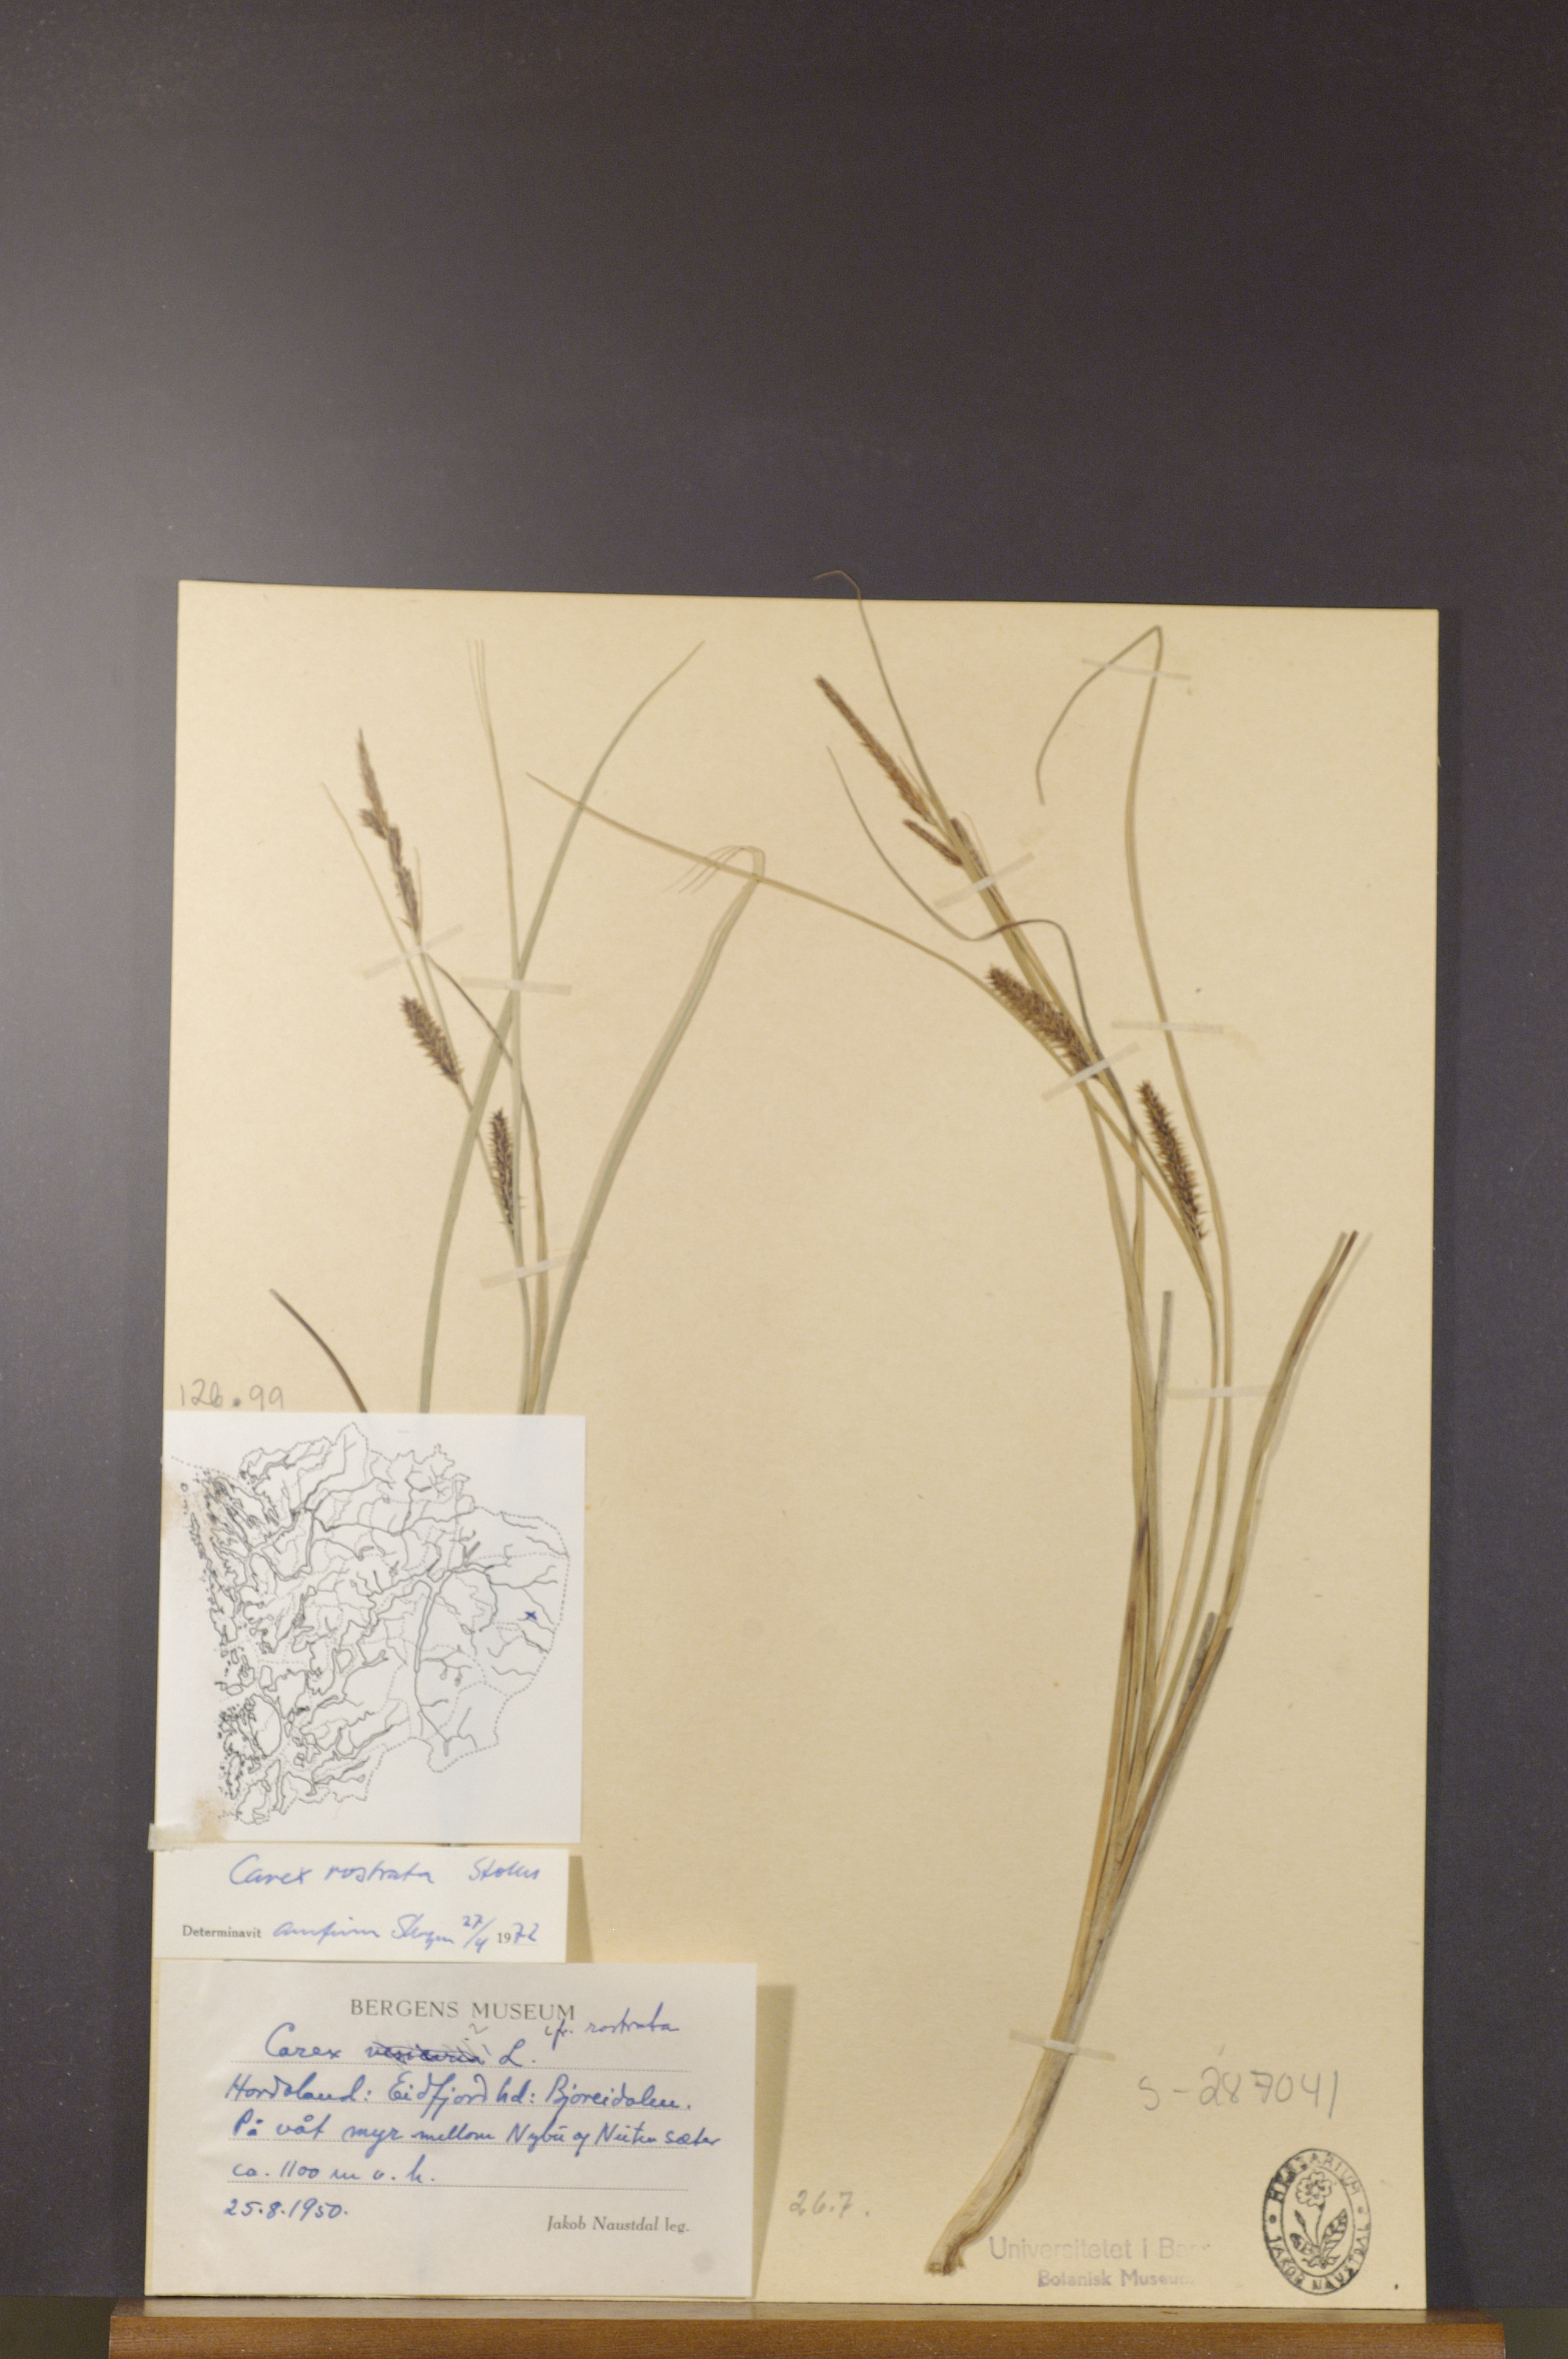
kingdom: Plantae
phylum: Tracheophyta
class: Liliopsida
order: Poales
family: Cyperaceae
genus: Carex
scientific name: Carex rostrata
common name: Bottle sedge
